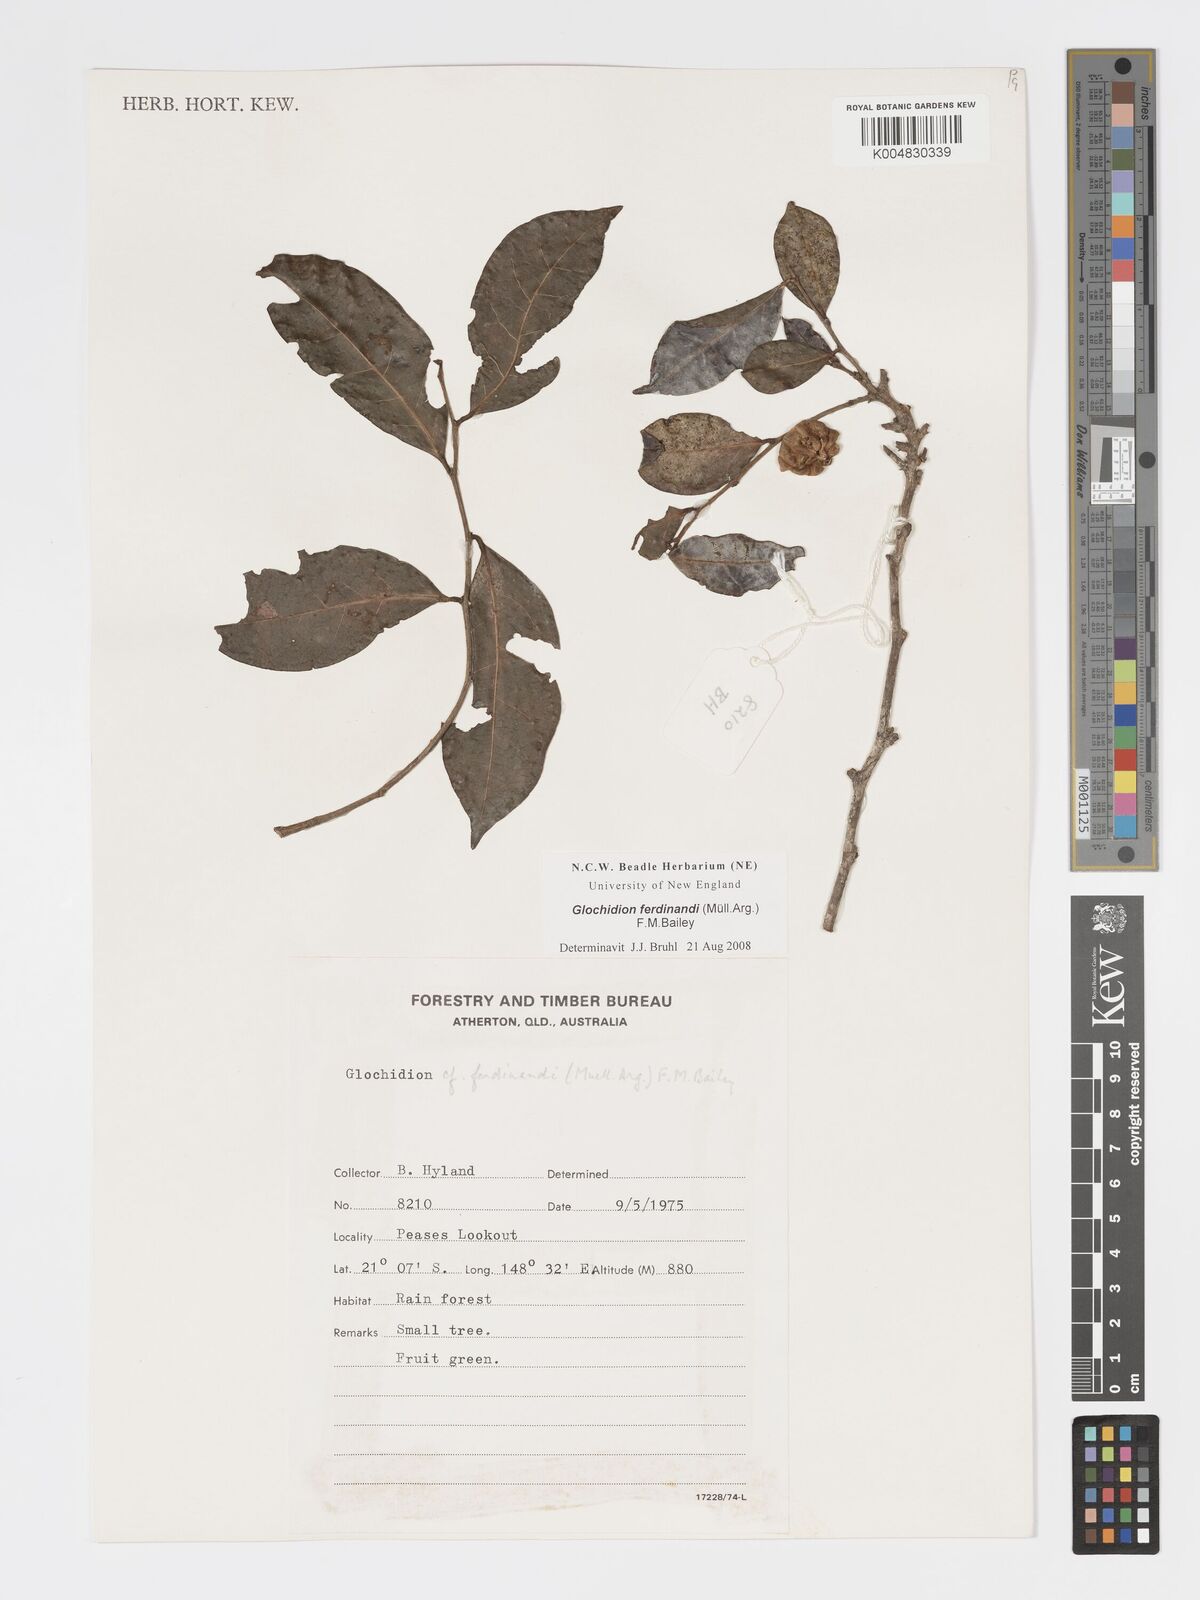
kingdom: Plantae
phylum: Tracheophyta
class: Magnoliopsida
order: Malpighiales
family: Phyllanthaceae
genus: Glochidion
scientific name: Glochidion ferdinandi
